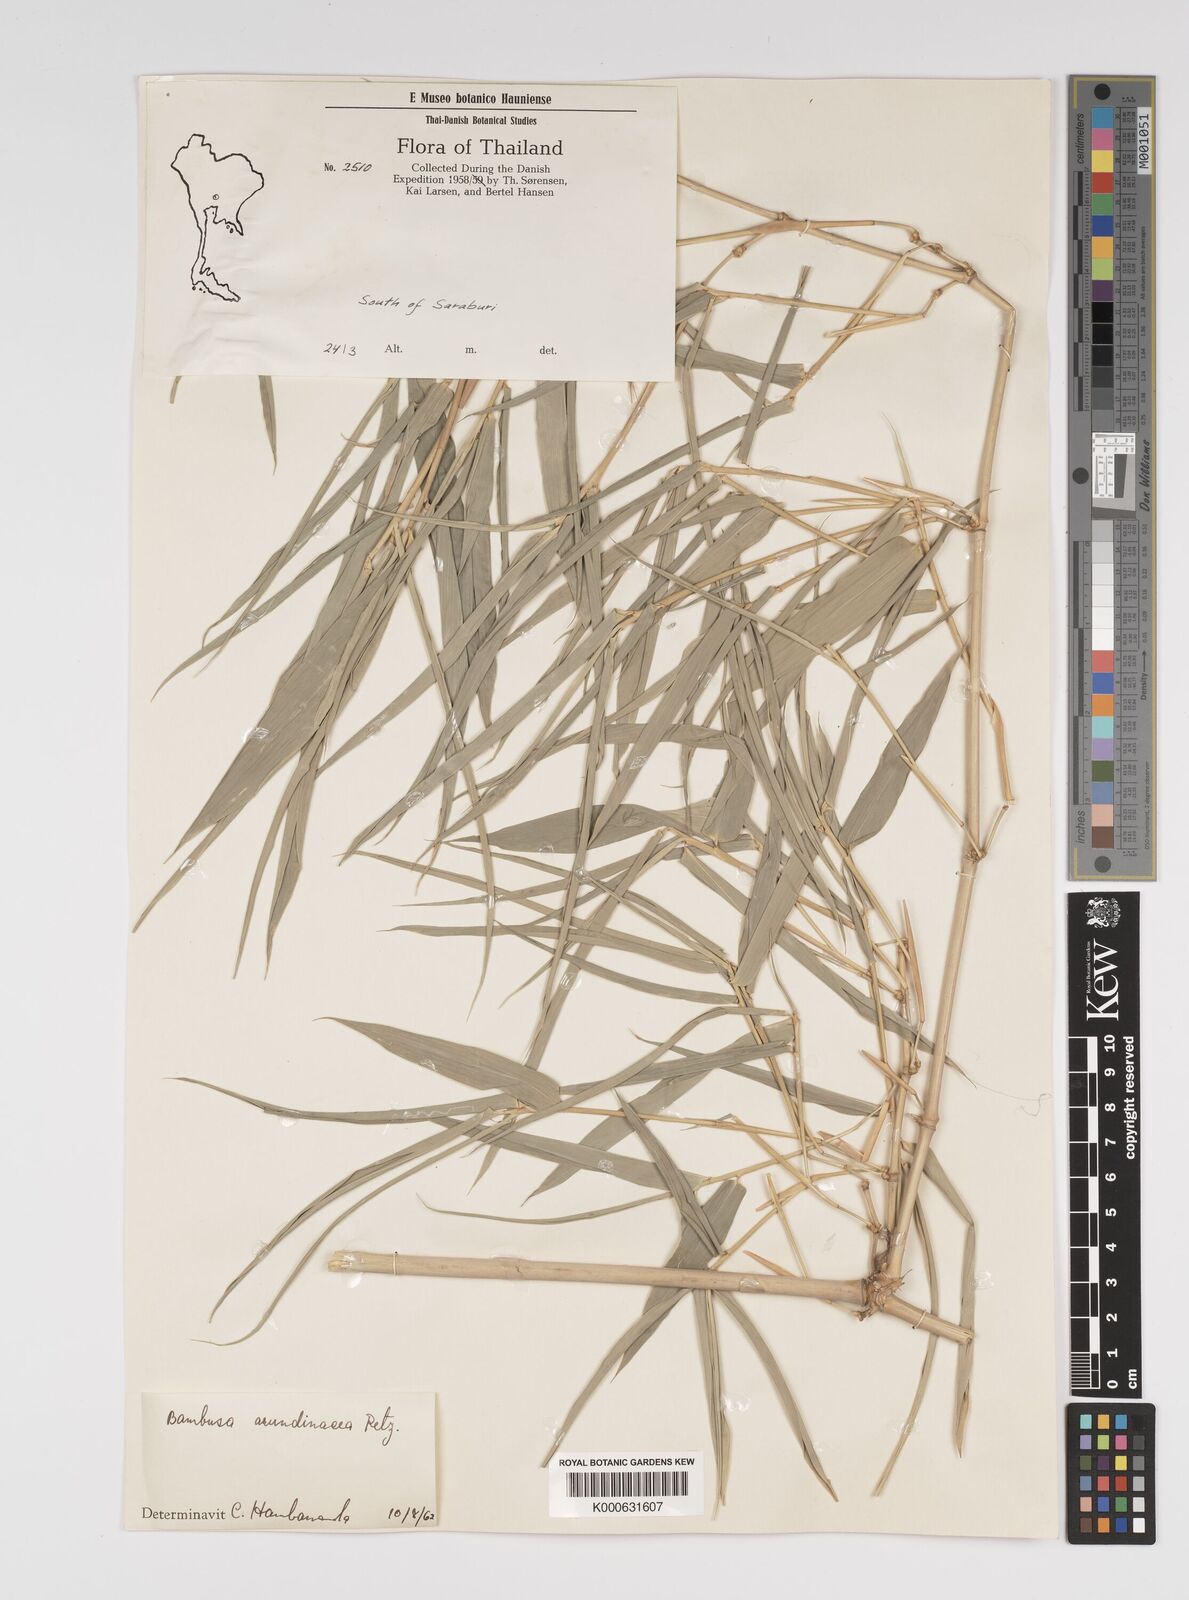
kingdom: Plantae
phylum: Tracheophyta
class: Liliopsida
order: Poales
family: Poaceae
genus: Bambusa
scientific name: Bambusa bambos
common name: Indian thorny bamboo
